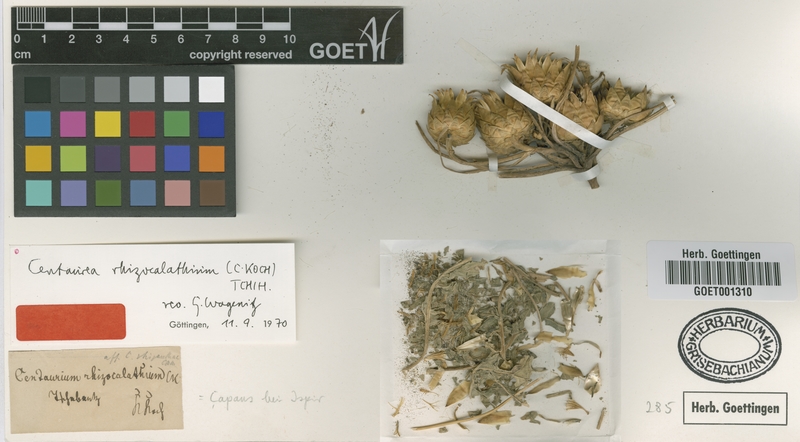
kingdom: Plantae
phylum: Tracheophyta
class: Magnoliopsida
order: Asterales
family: Asteraceae
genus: Centaurea
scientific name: Centaurea rhizocalathium
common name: Root-headed centaury
